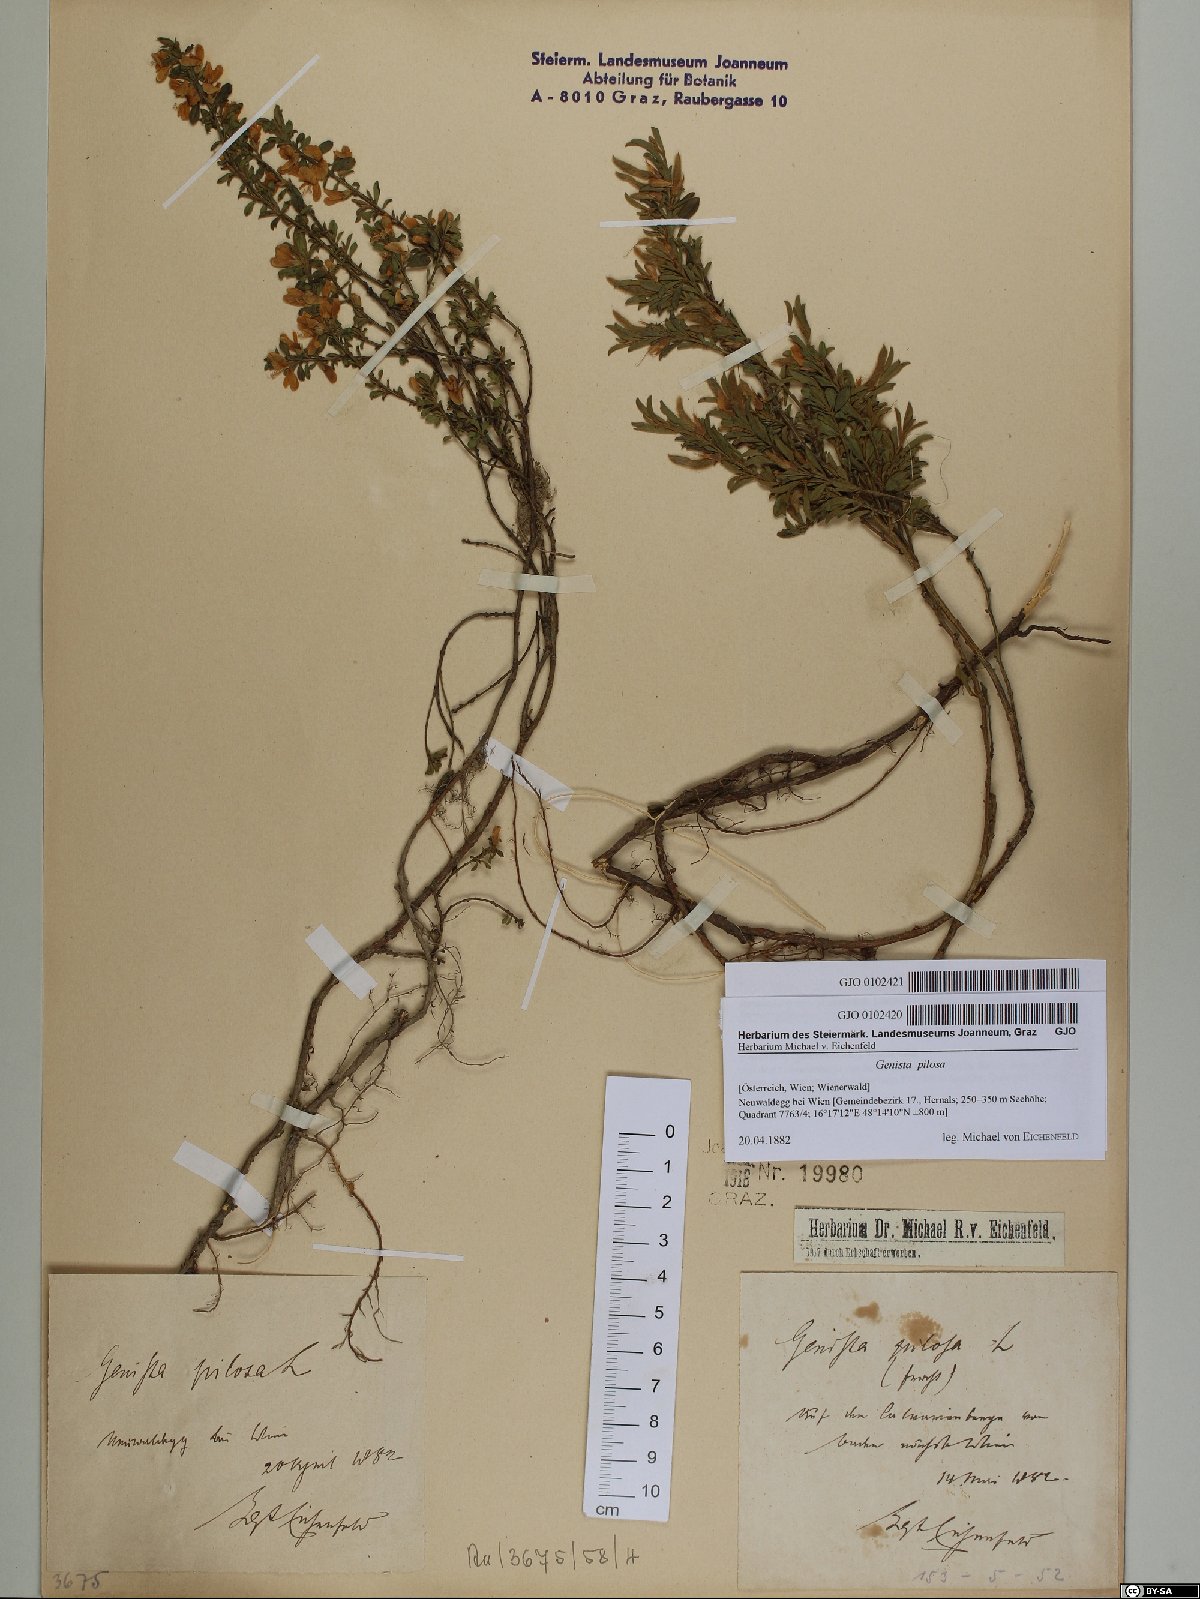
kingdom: Plantae
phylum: Tracheophyta
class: Magnoliopsida
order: Fabales
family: Fabaceae
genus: Genista
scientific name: Genista pilosa
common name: Hairy greenweed
